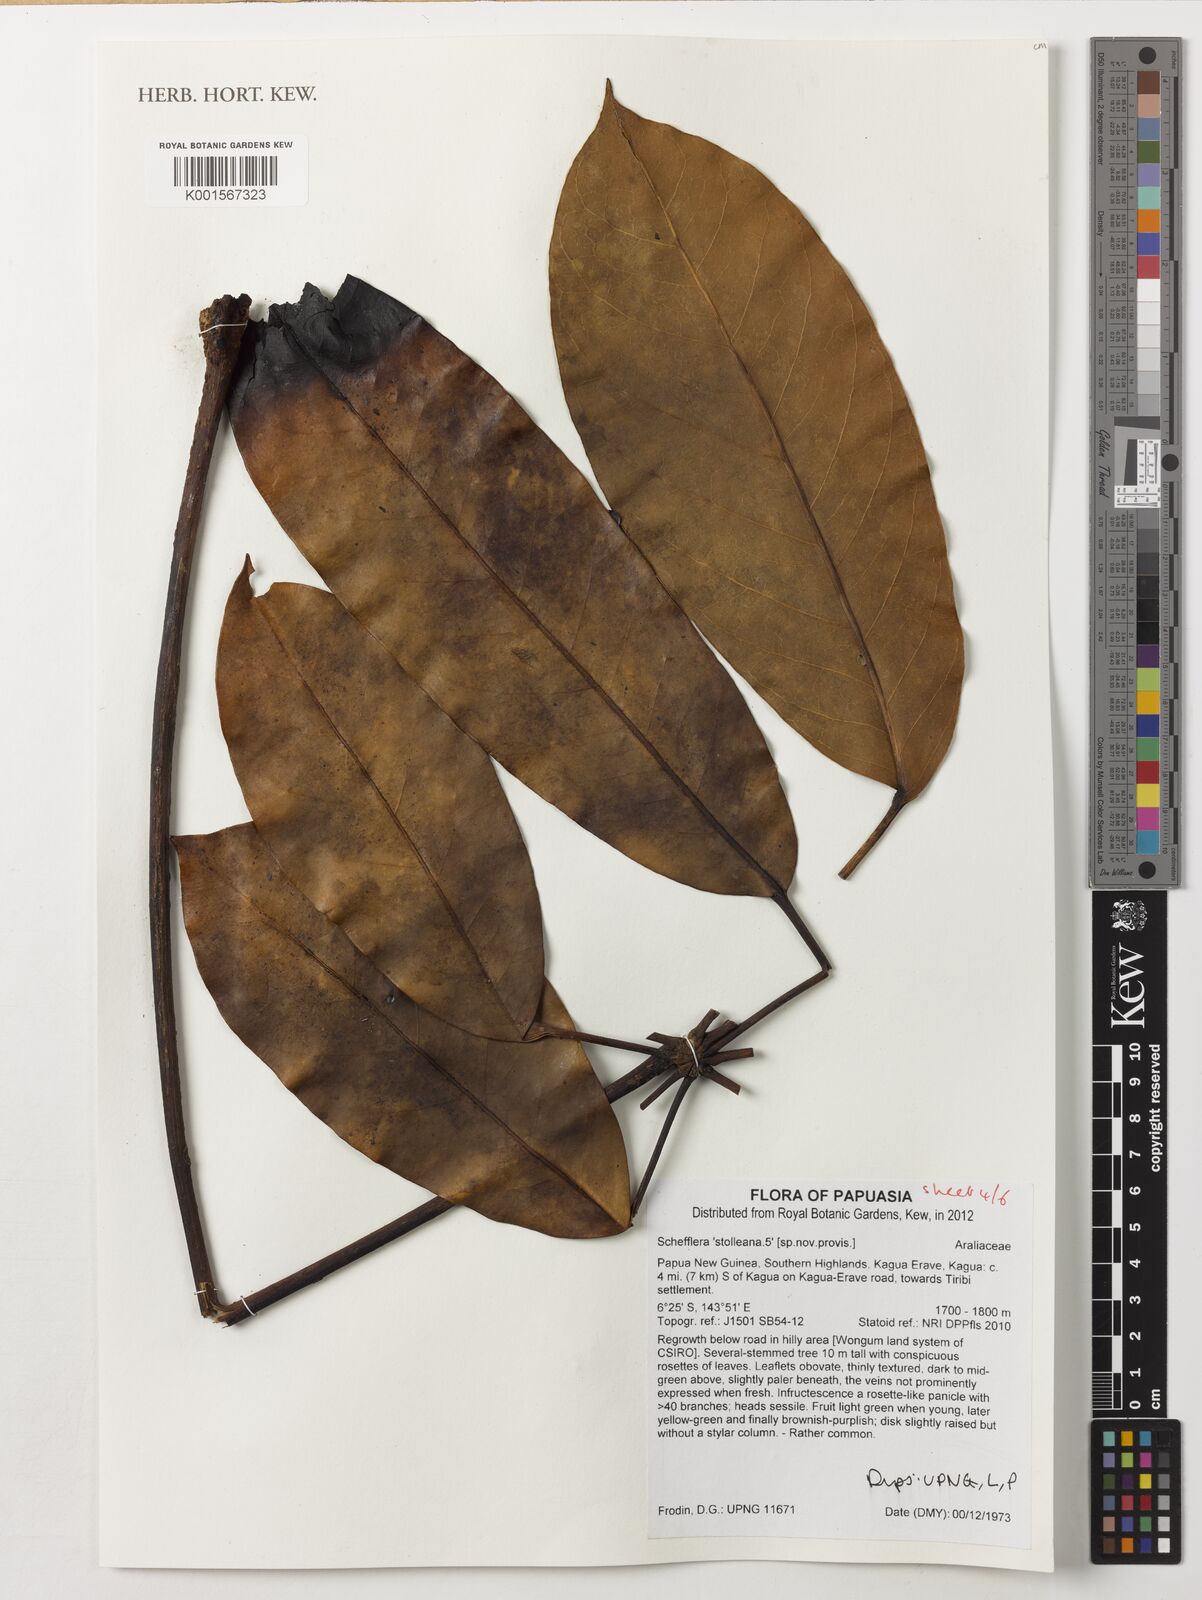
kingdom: Plantae
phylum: Tracheophyta
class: Magnoliopsida
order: Apiales
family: Araliaceae
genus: Heptapleurum
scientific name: Heptapleurum stolleanum
